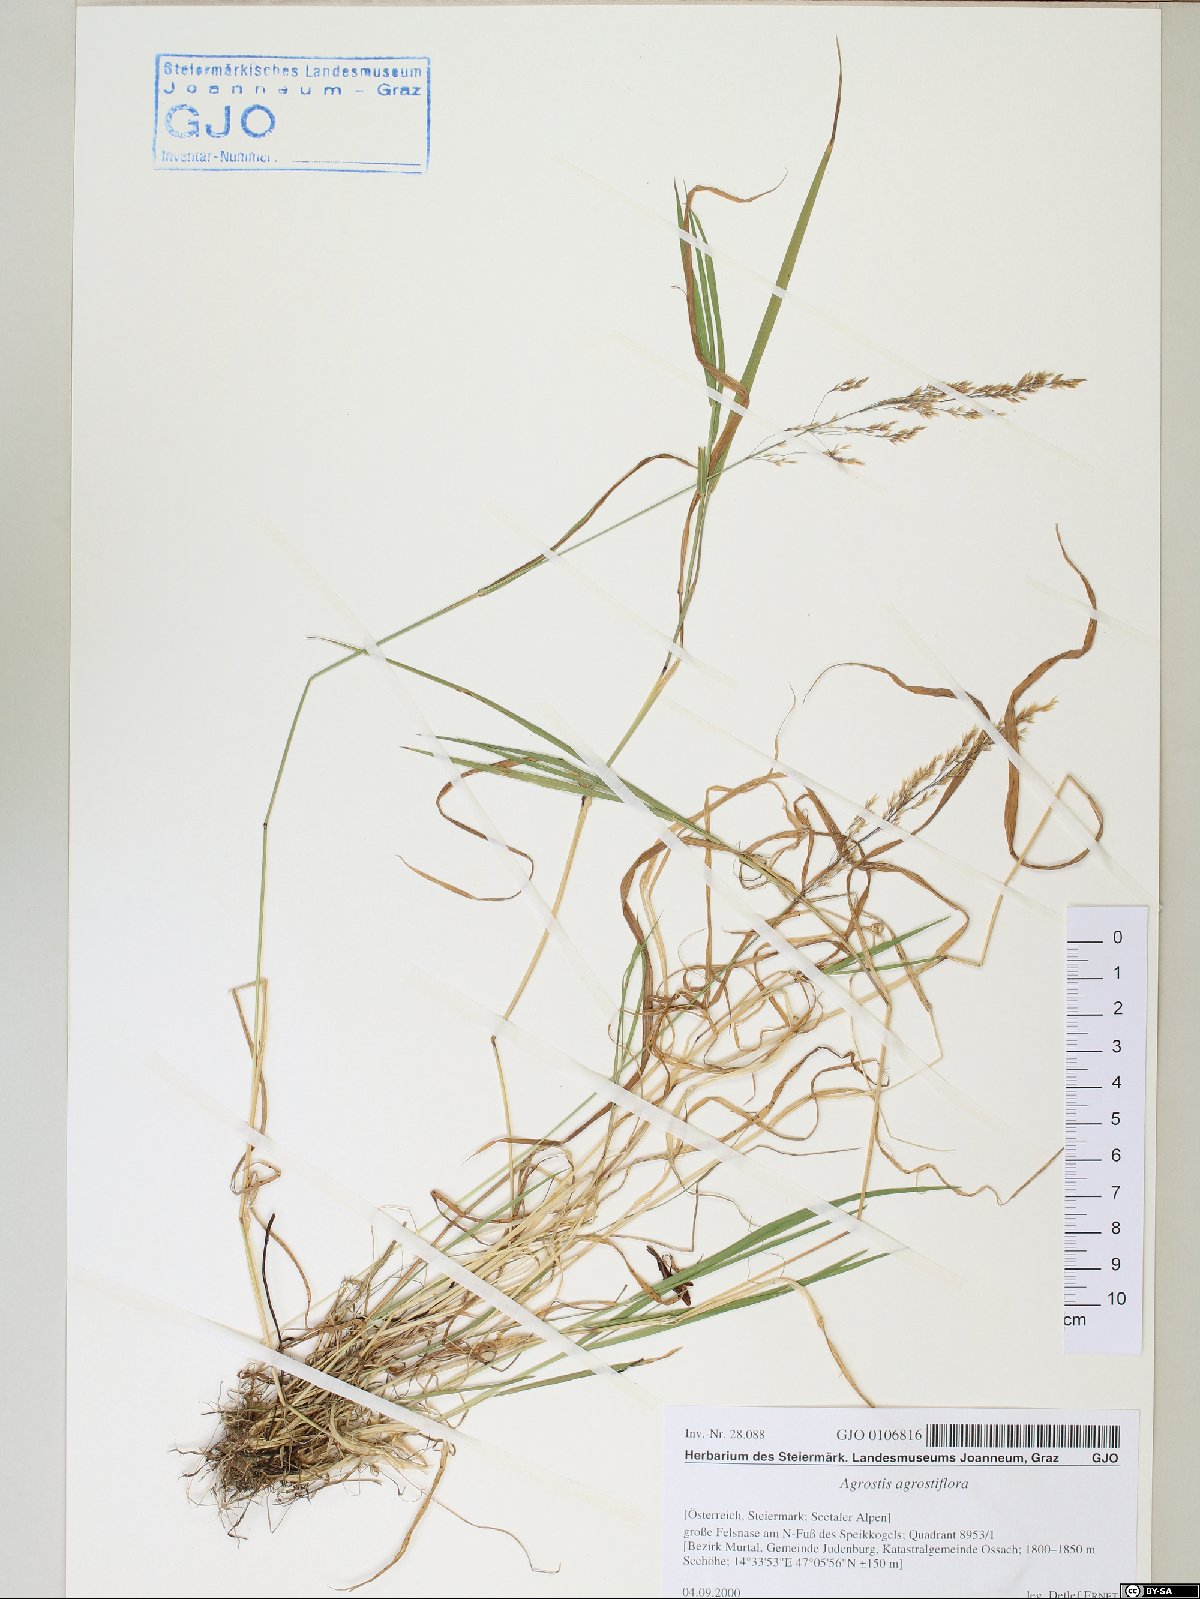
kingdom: Plantae
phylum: Tracheophyta
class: Liliopsida
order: Poales
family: Poaceae
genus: Agrostis
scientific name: Agrostis schraderiana
